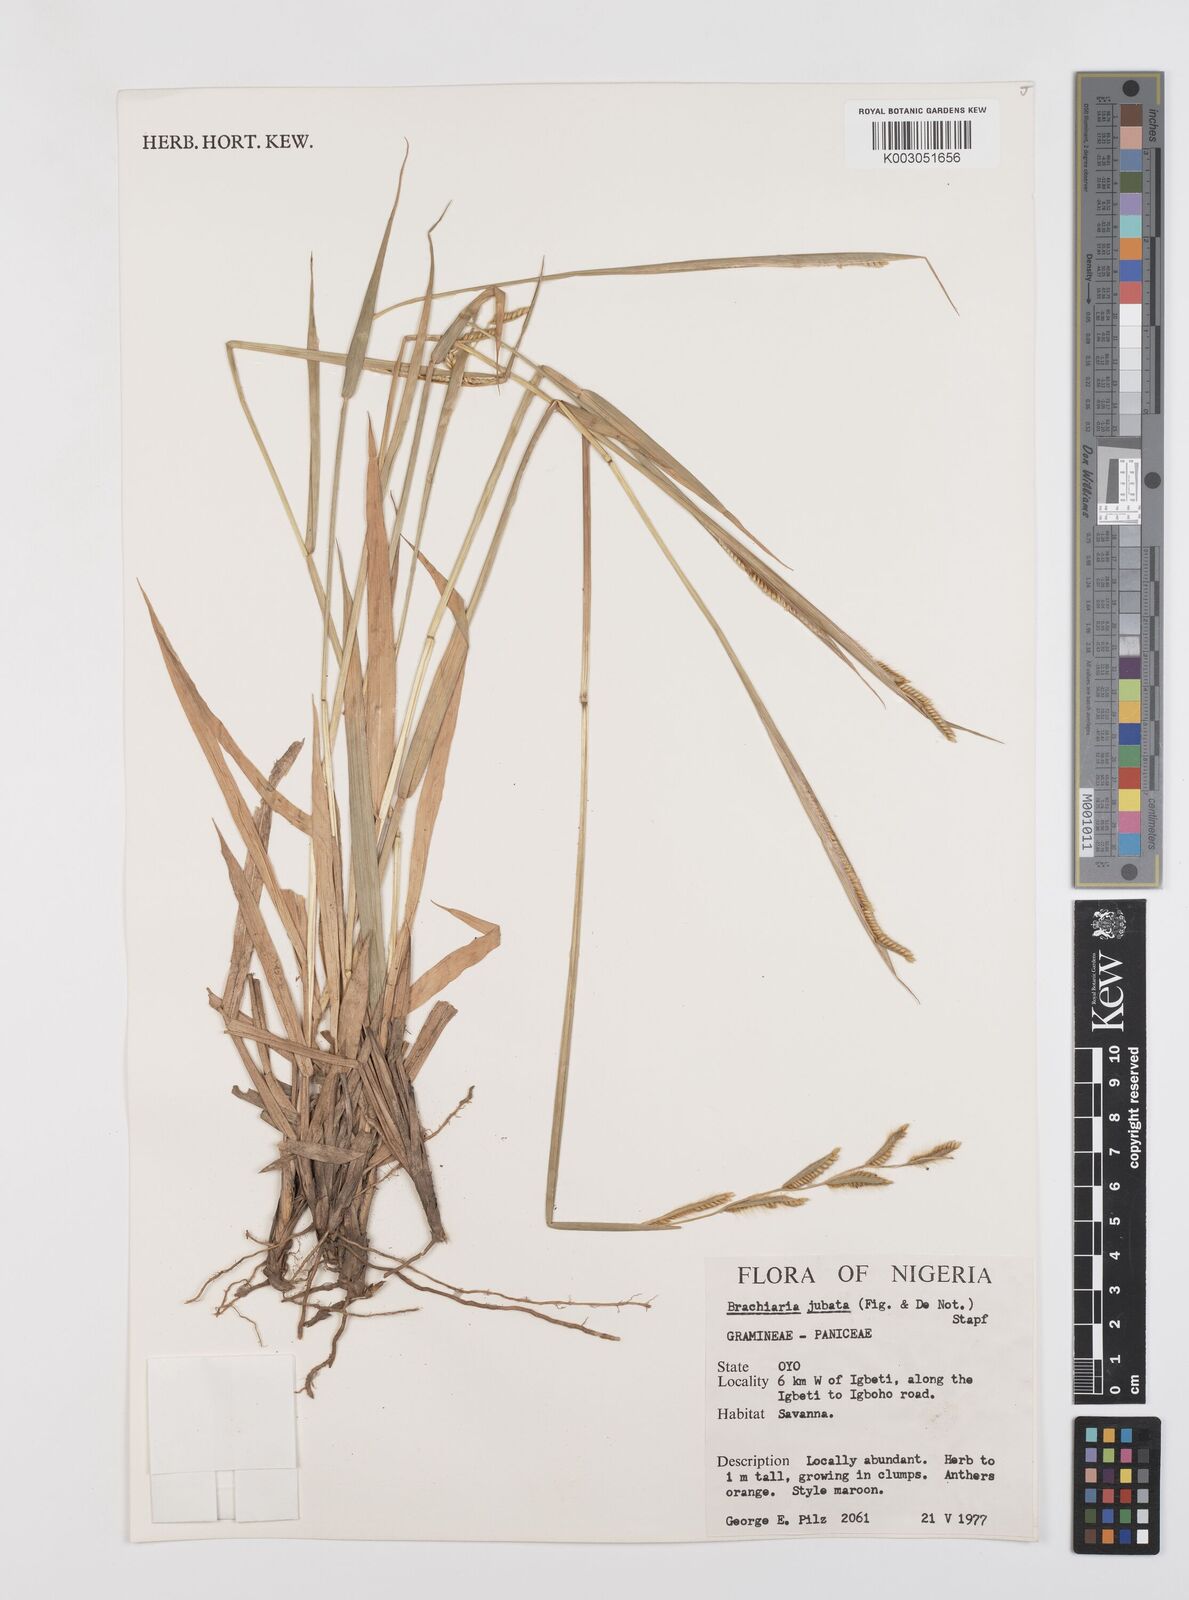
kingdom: Plantae
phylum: Tracheophyta
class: Liliopsida
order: Poales
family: Poaceae
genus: Urochloa
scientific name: Urochloa jubata
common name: Buffalograss
